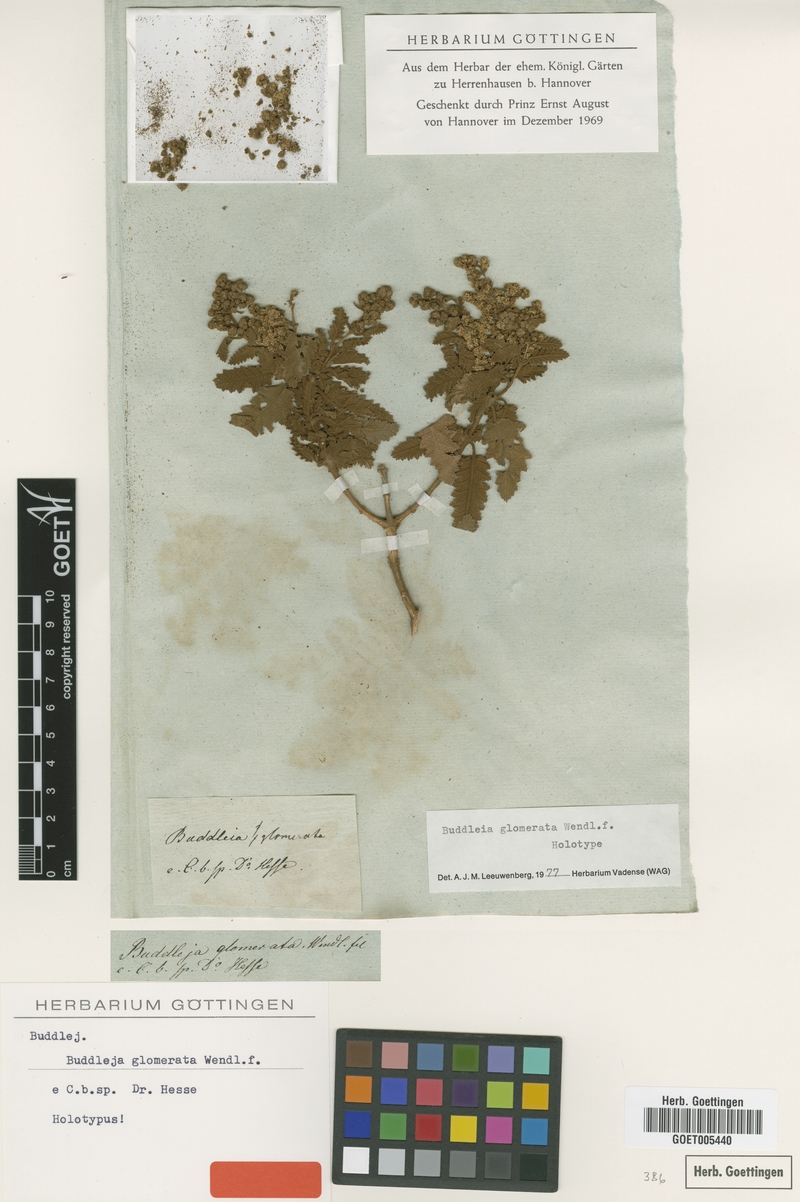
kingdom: Plantae
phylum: Tracheophyta
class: Magnoliopsida
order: Lamiales
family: Scrophulariaceae
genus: Buddleja
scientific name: Buddleja glomerata
